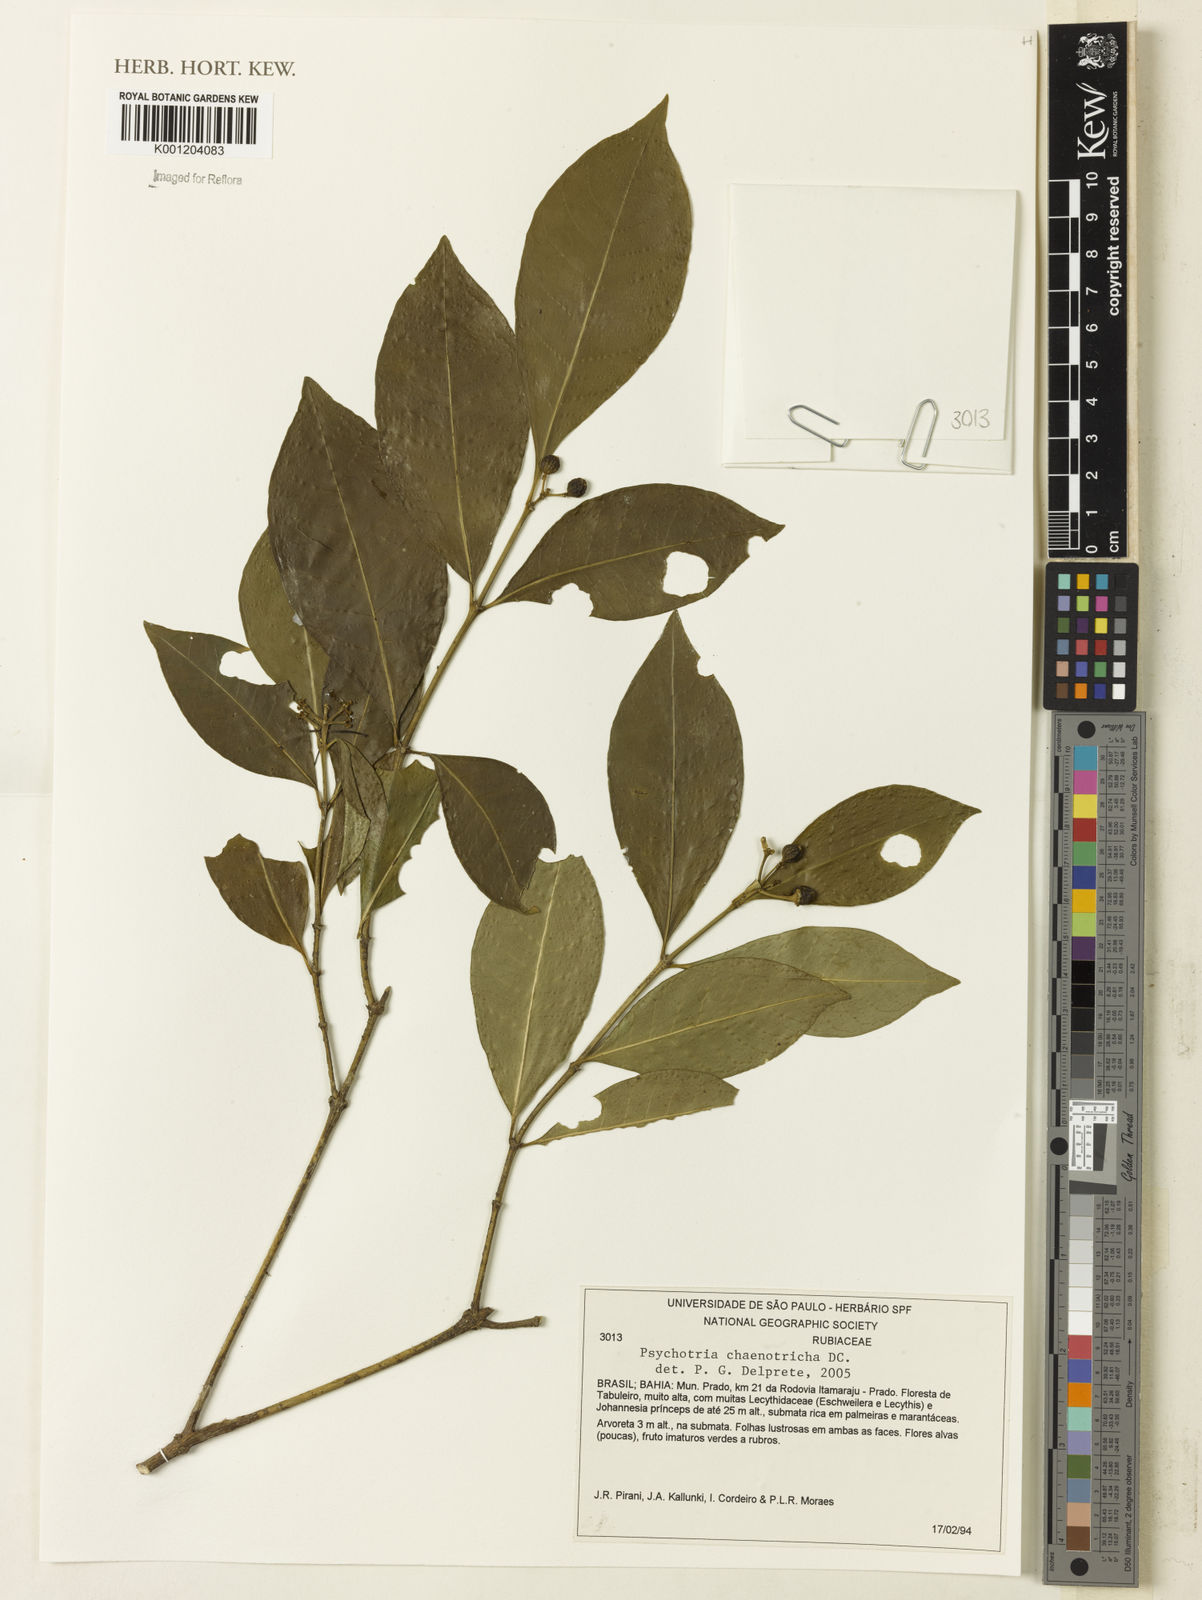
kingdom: Plantae
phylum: Tracheophyta
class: Magnoliopsida
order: Gentianales
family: Rubiaceae
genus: Eumachia
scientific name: Eumachia chaenotricha
